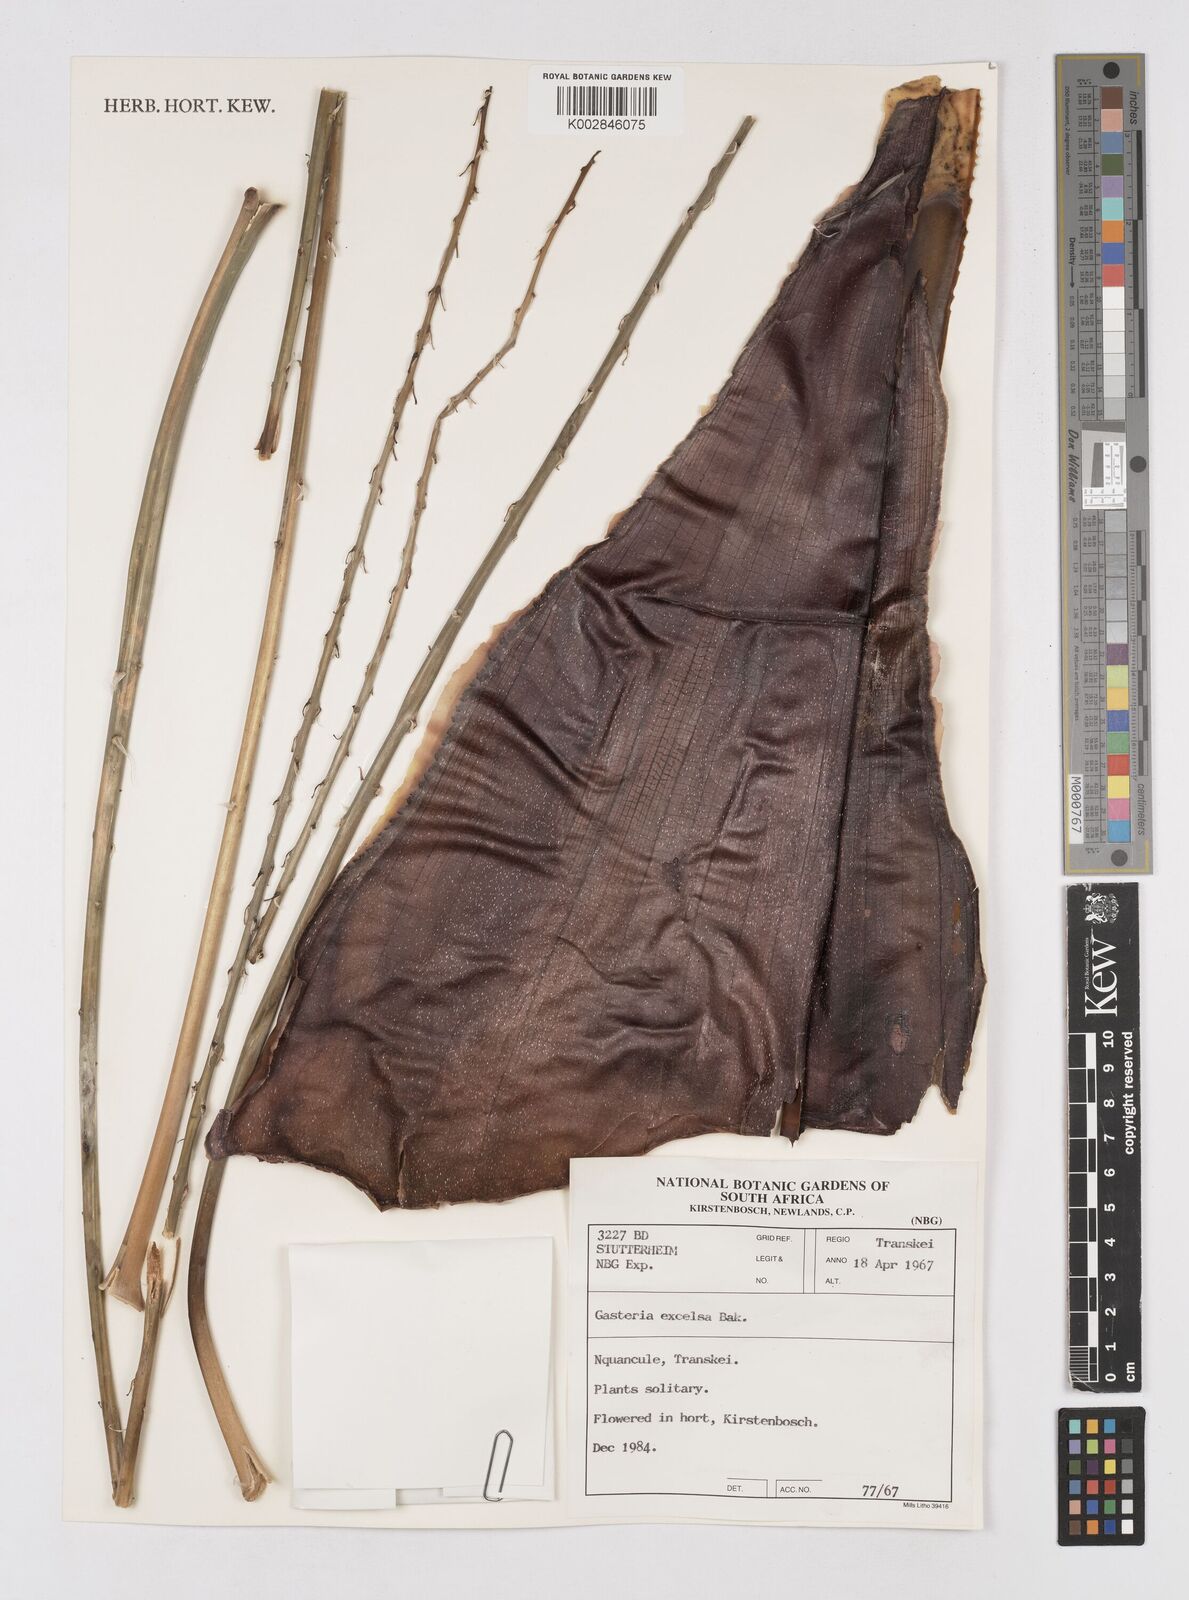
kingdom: Plantae
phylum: Tracheophyta
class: Liliopsida
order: Asparagales
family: Asphodelaceae
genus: Gasteria
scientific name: Gasteria excelsa
